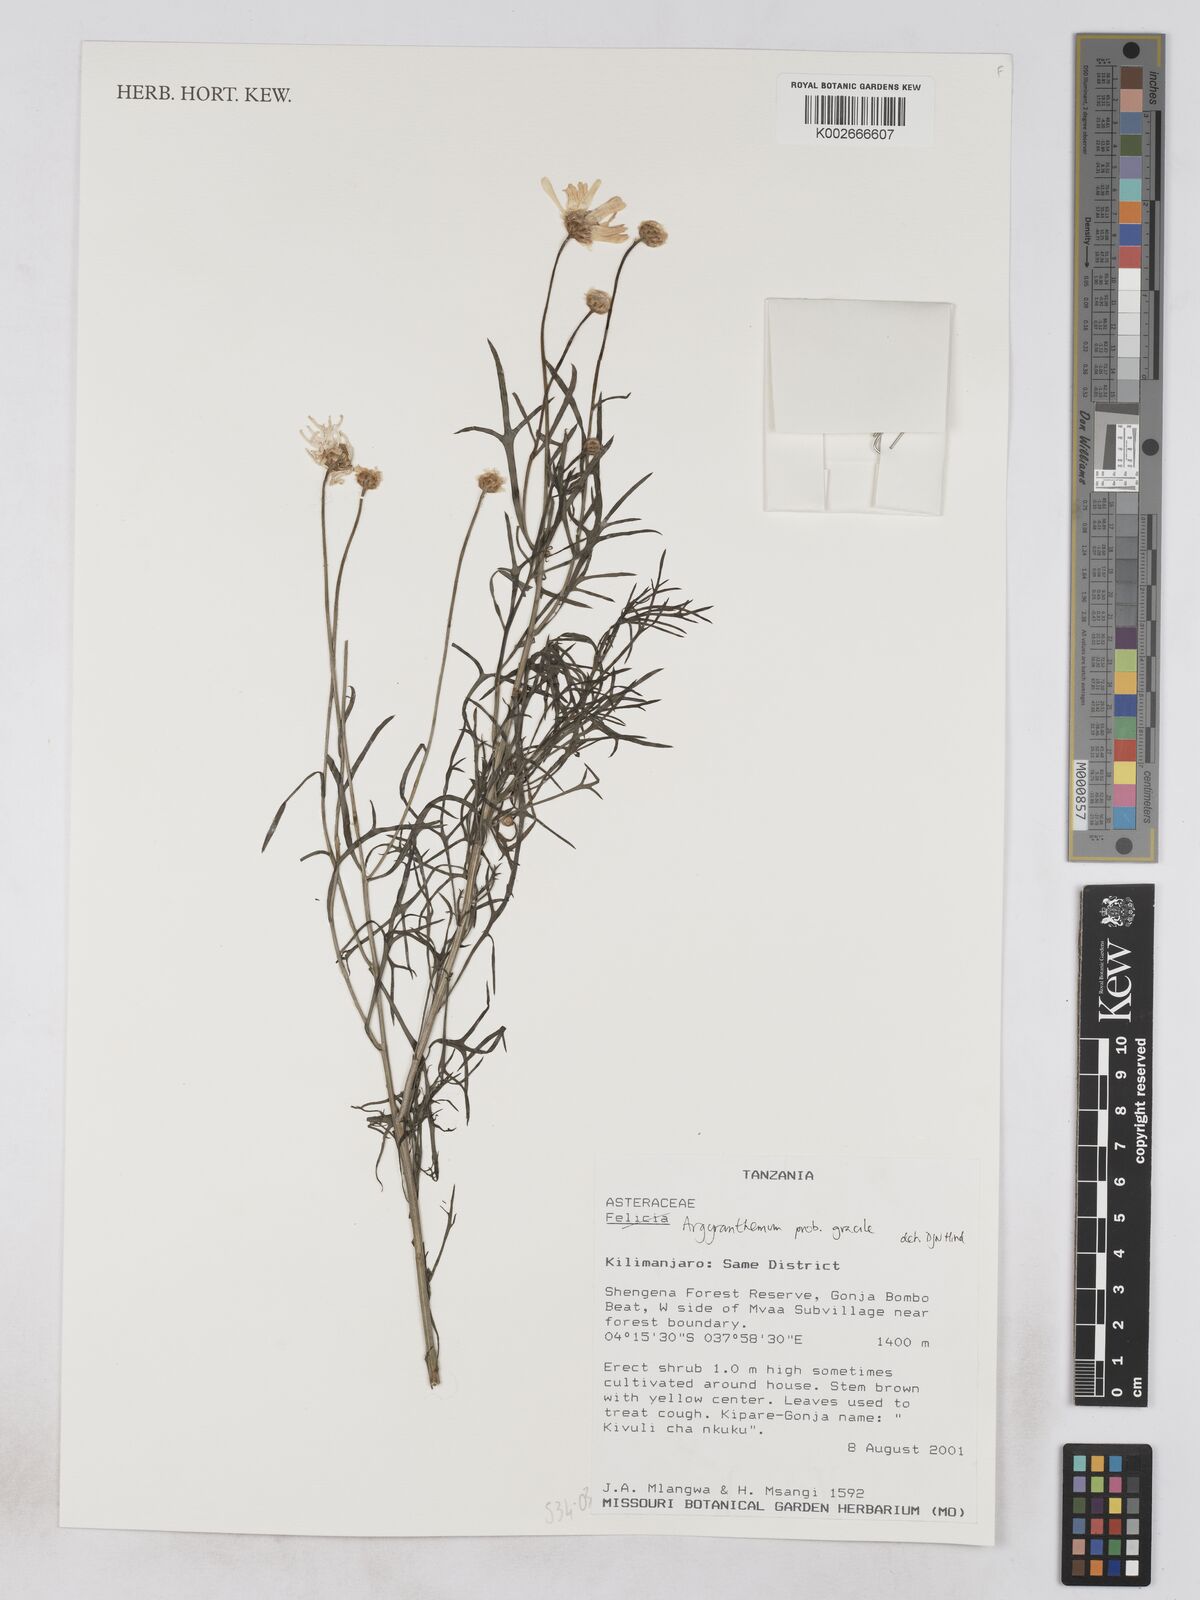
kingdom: Plantae
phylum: Tracheophyta
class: Magnoliopsida
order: Asterales
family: Asteraceae
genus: Argyranthemum
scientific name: Argyranthemum gracile
